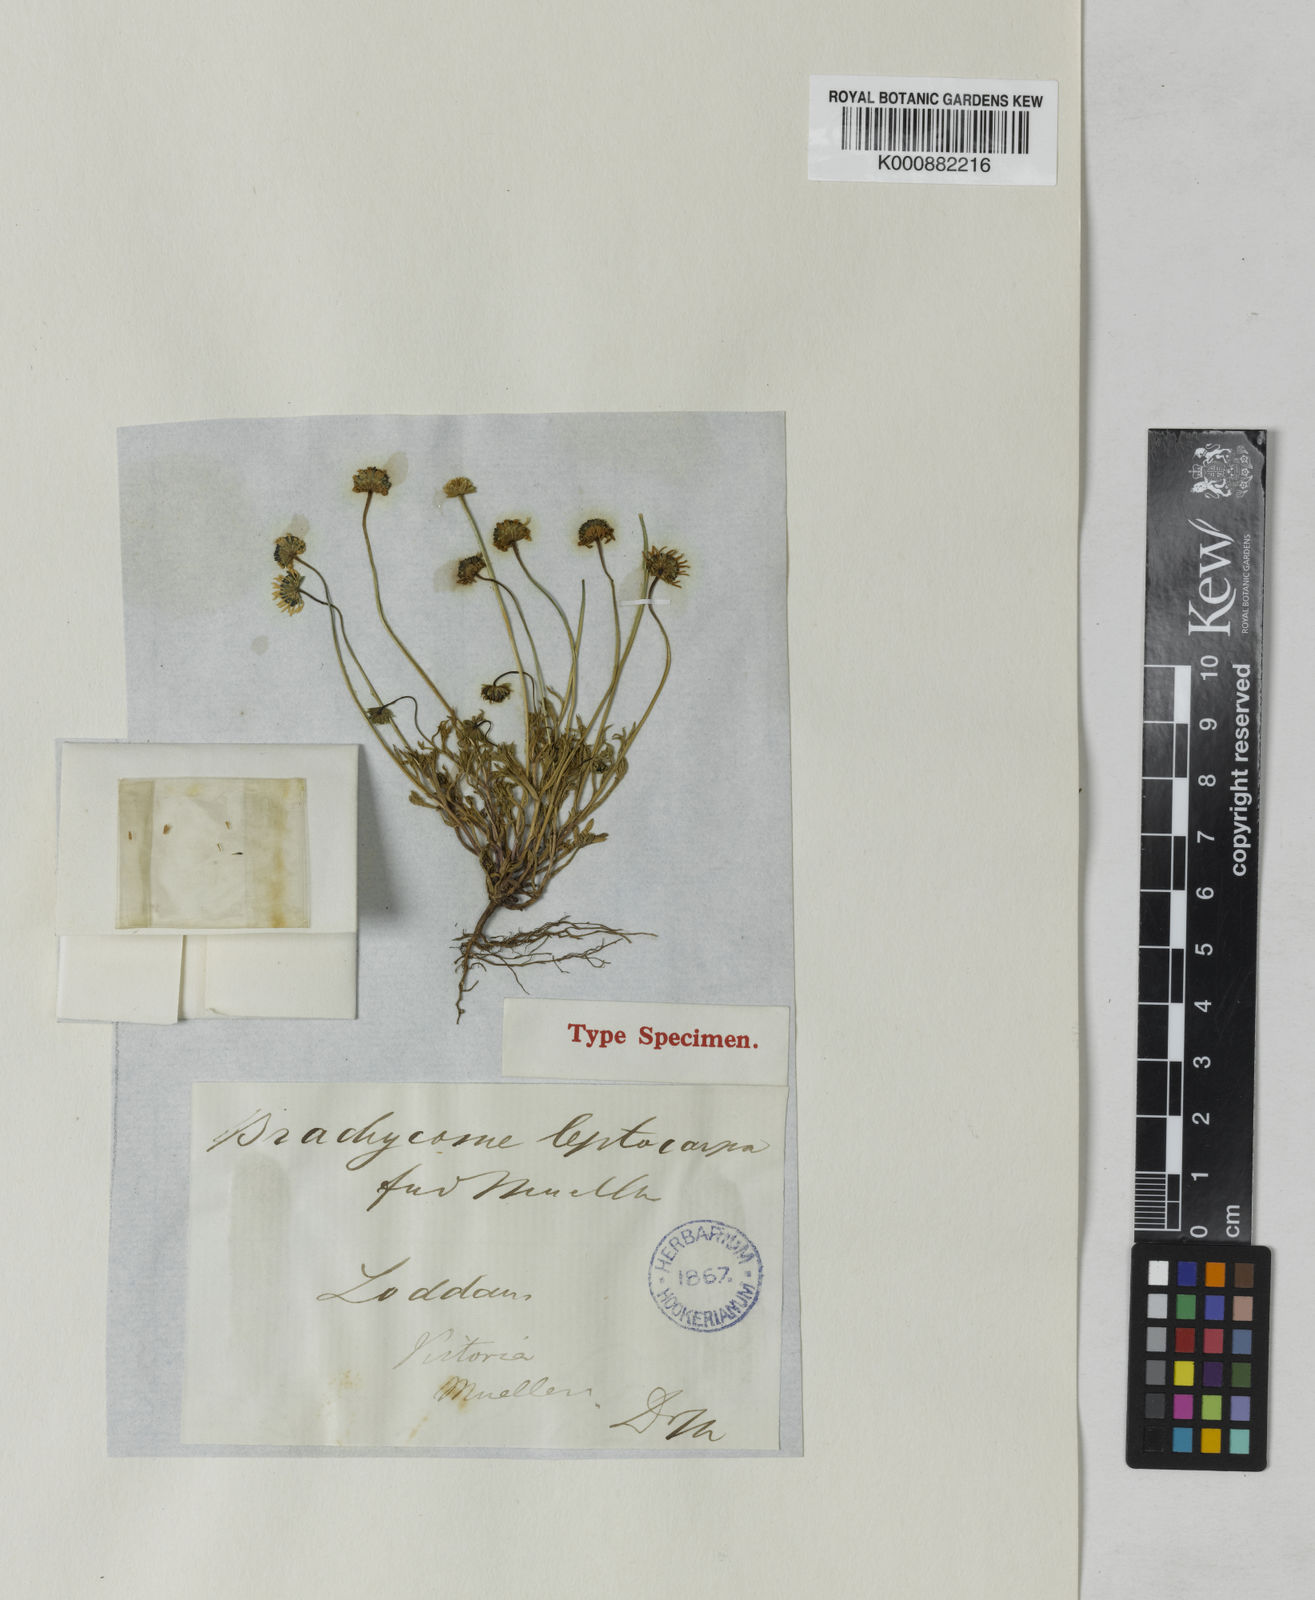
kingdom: Plantae
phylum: Tracheophyta
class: Magnoliopsida
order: Asterales
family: Asteraceae
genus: Brachyscome
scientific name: Brachyscome leptocarpa
